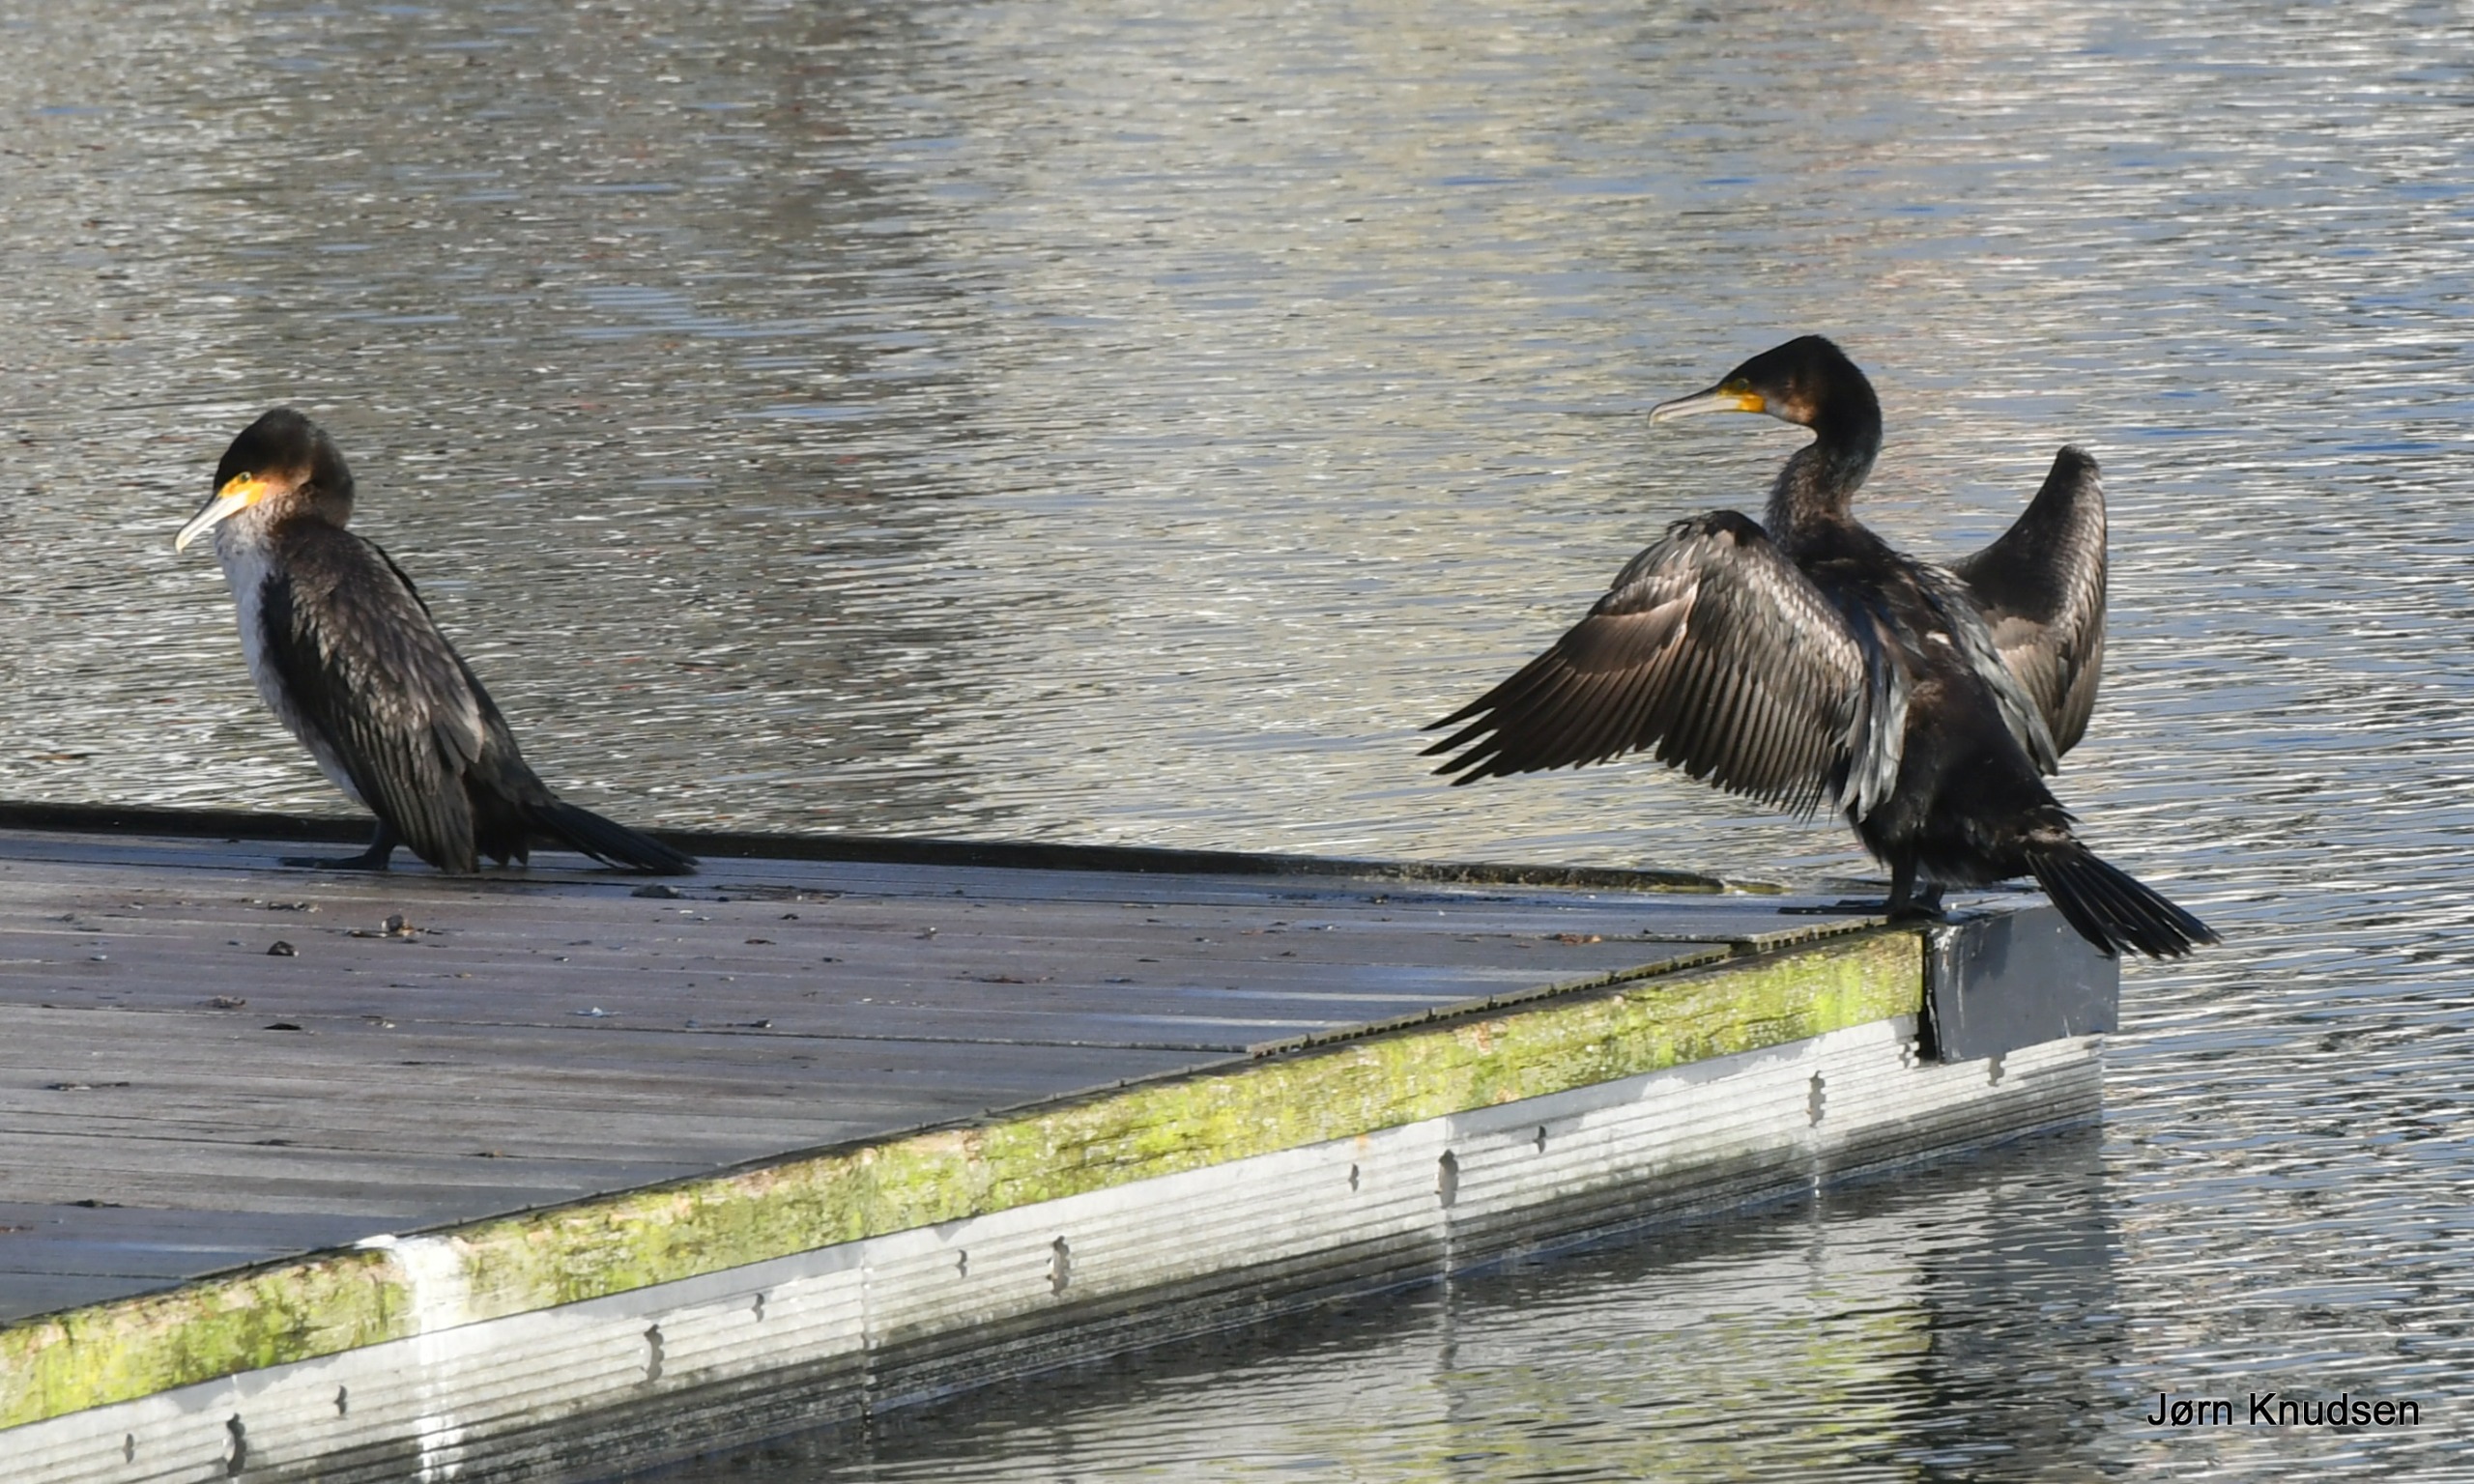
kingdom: Animalia
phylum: Chordata
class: Aves
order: Suliformes
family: Phalacrocoracidae
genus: Phalacrocorax
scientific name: Phalacrocorax carbo
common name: Skarv
